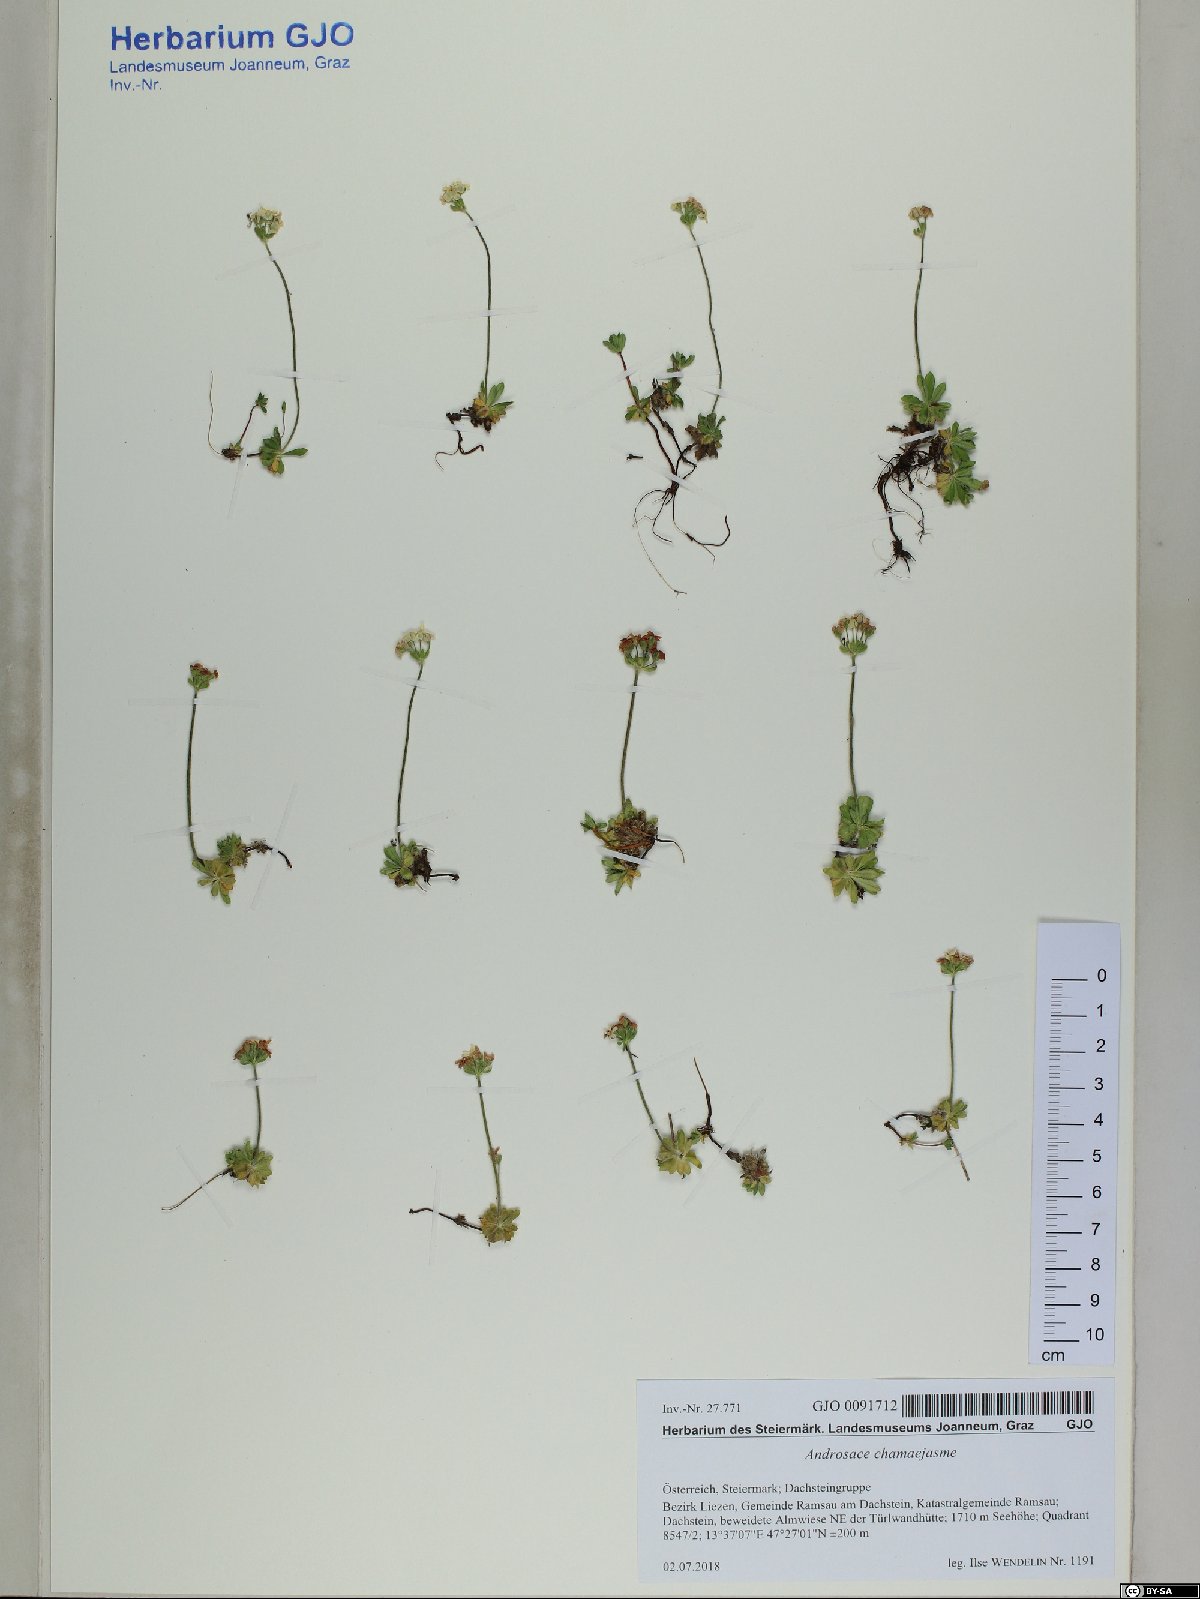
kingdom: Plantae
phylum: Tracheophyta
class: Magnoliopsida
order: Ericales
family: Primulaceae
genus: Androsace
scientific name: Androsace chamaejasme
